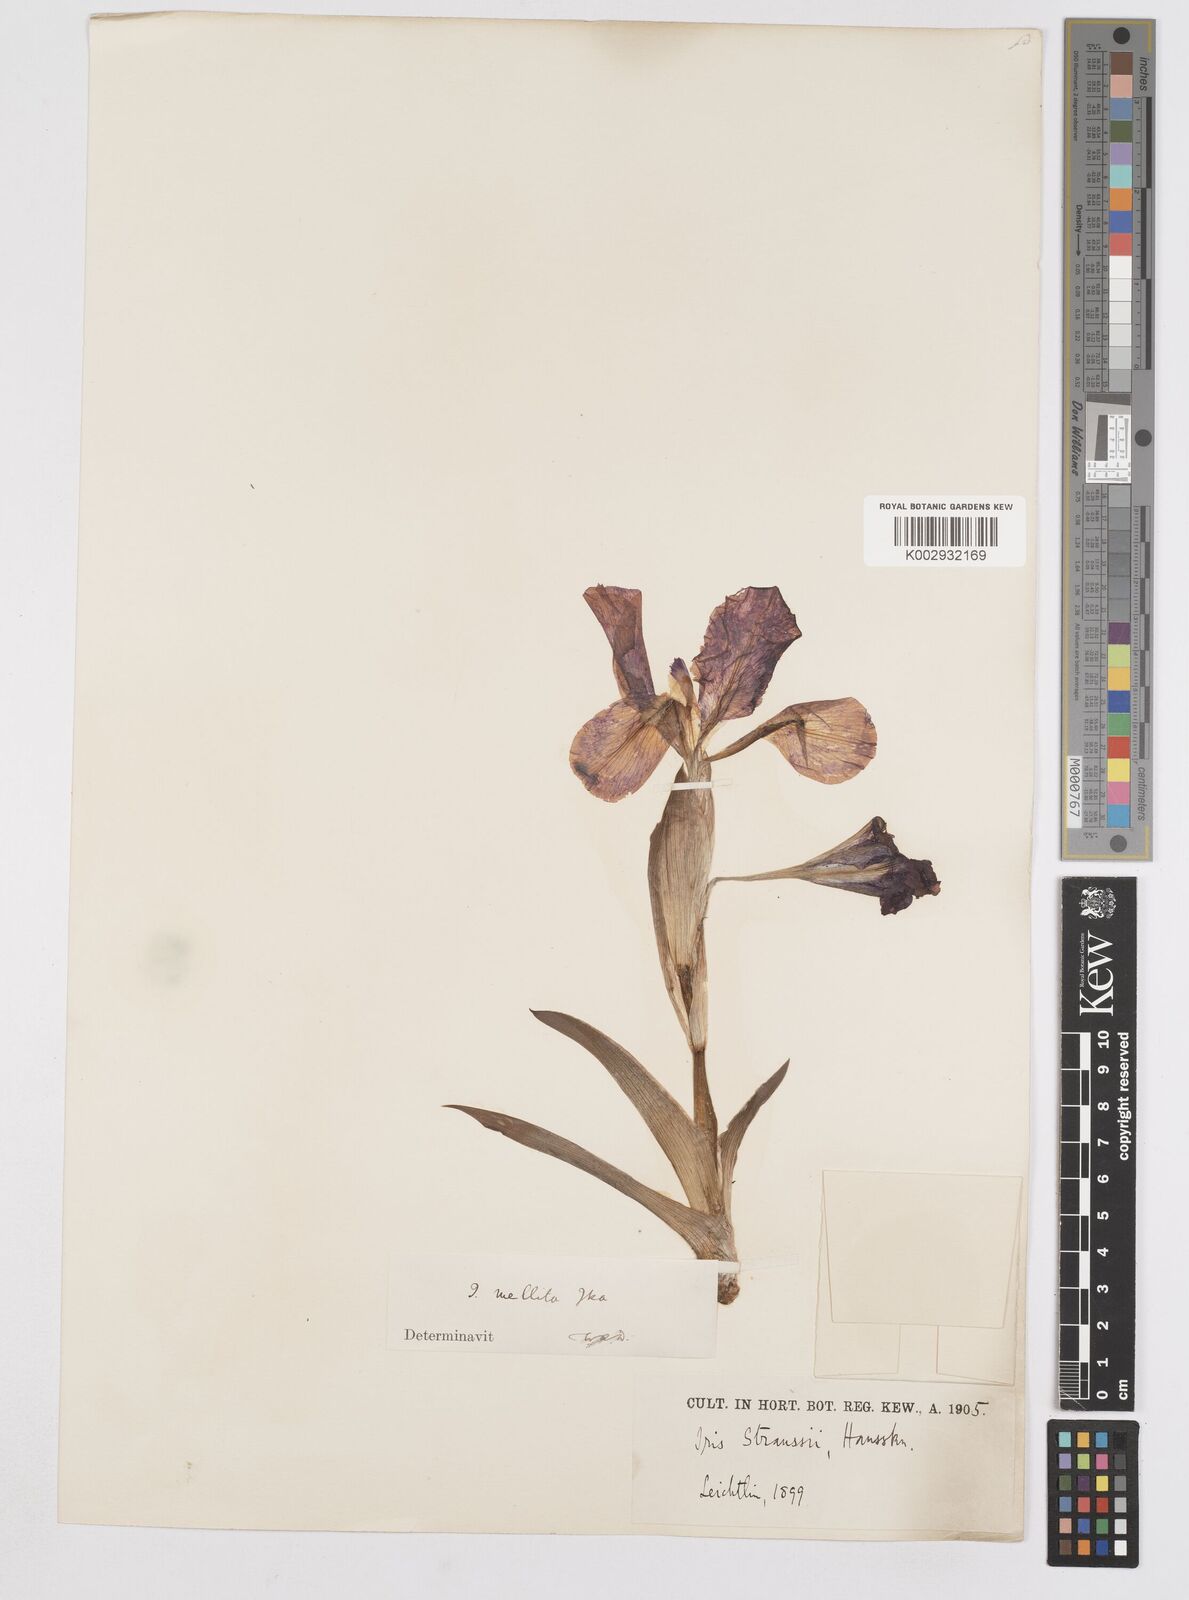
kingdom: Plantae
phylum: Tracheophyta
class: Liliopsida
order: Asparagales
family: Iridaceae
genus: Iris
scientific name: Iris suaveolens
